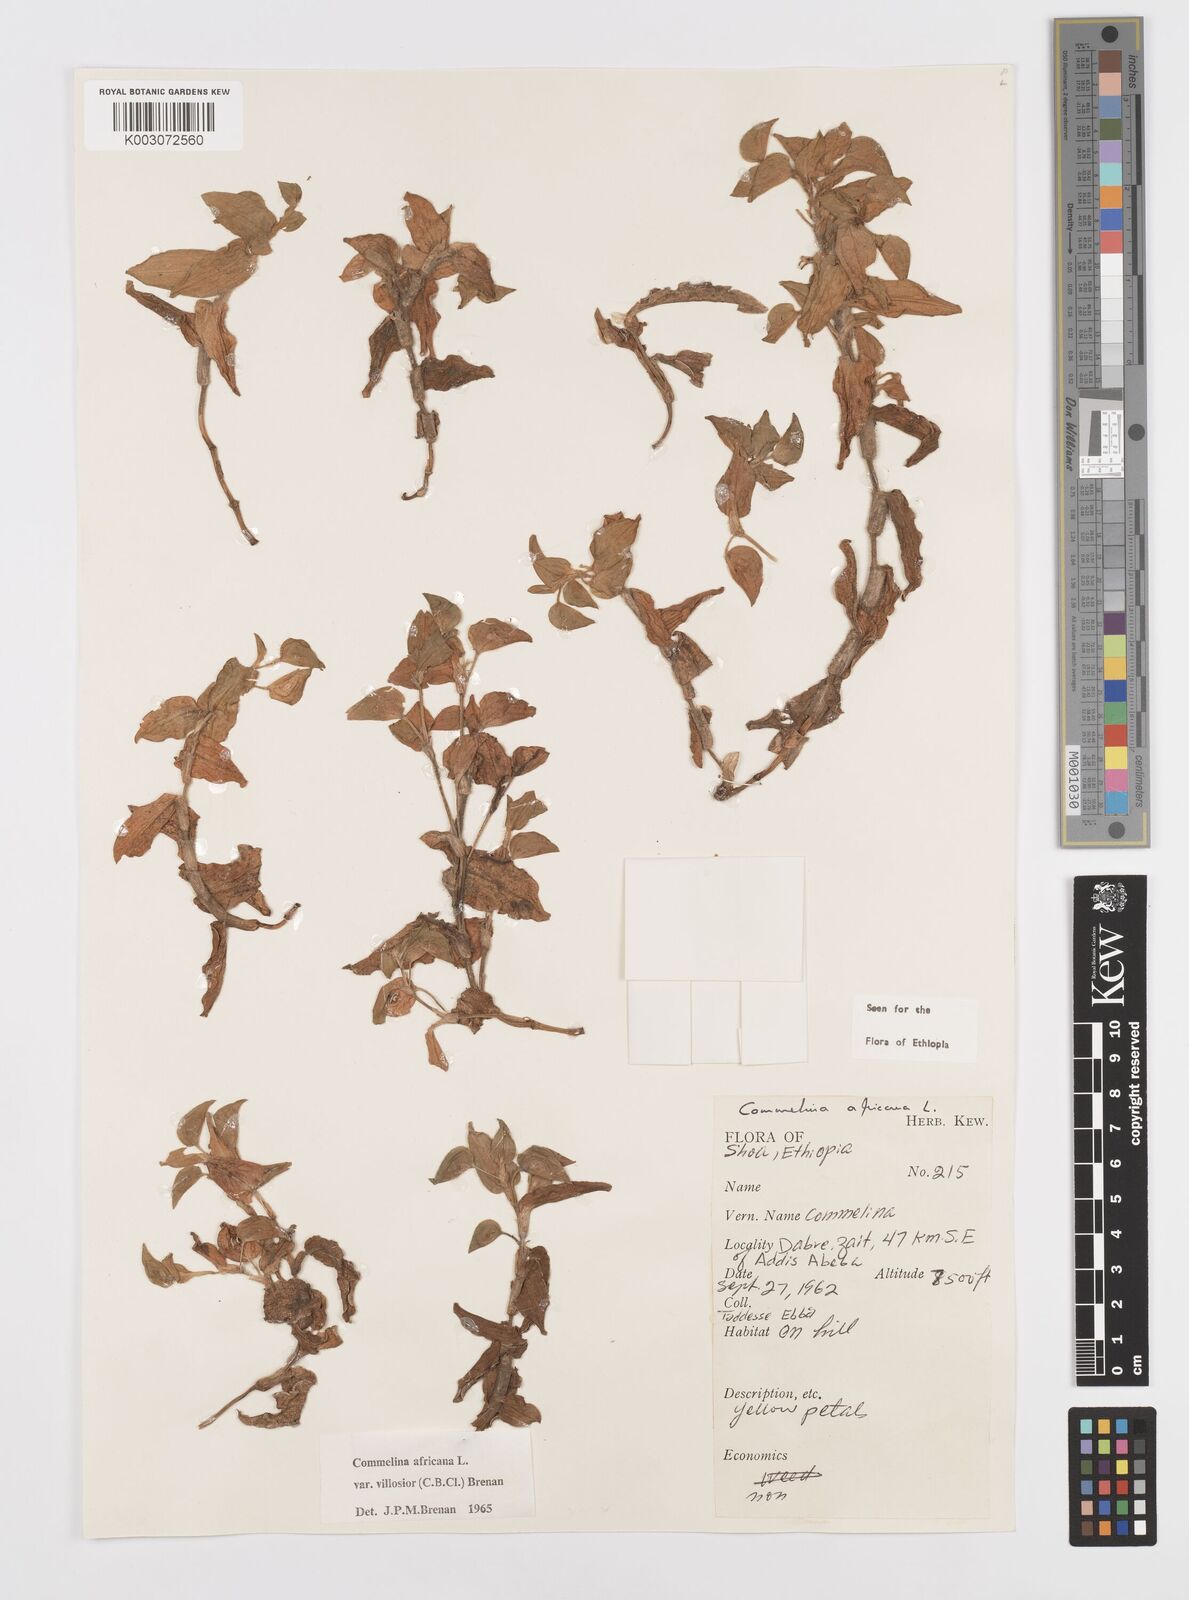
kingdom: Plantae
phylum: Tracheophyta
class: Liliopsida
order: Commelinales
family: Commelinaceae
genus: Commelina
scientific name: Commelina africana
